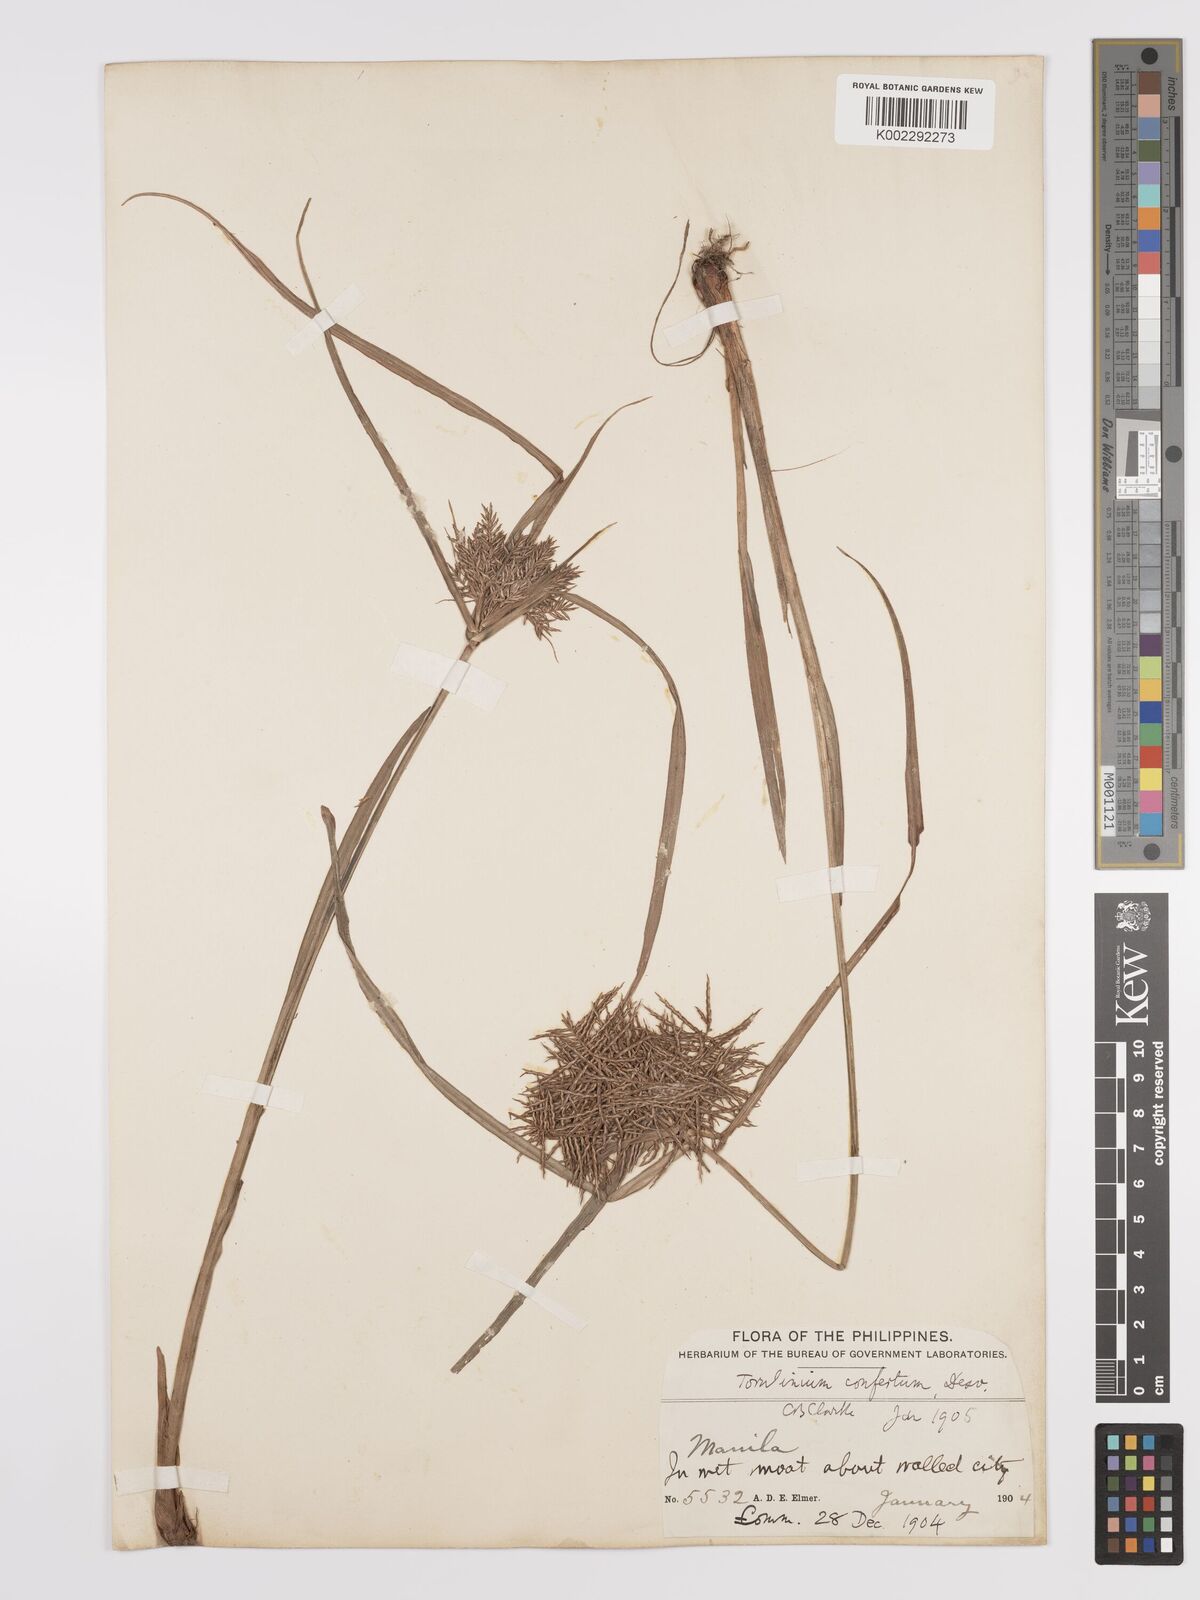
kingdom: Plantae
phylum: Tracheophyta
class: Liliopsida
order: Poales
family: Cyperaceae
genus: Cyperus
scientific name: Cyperus odoratus
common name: Fragrant flatsedge
